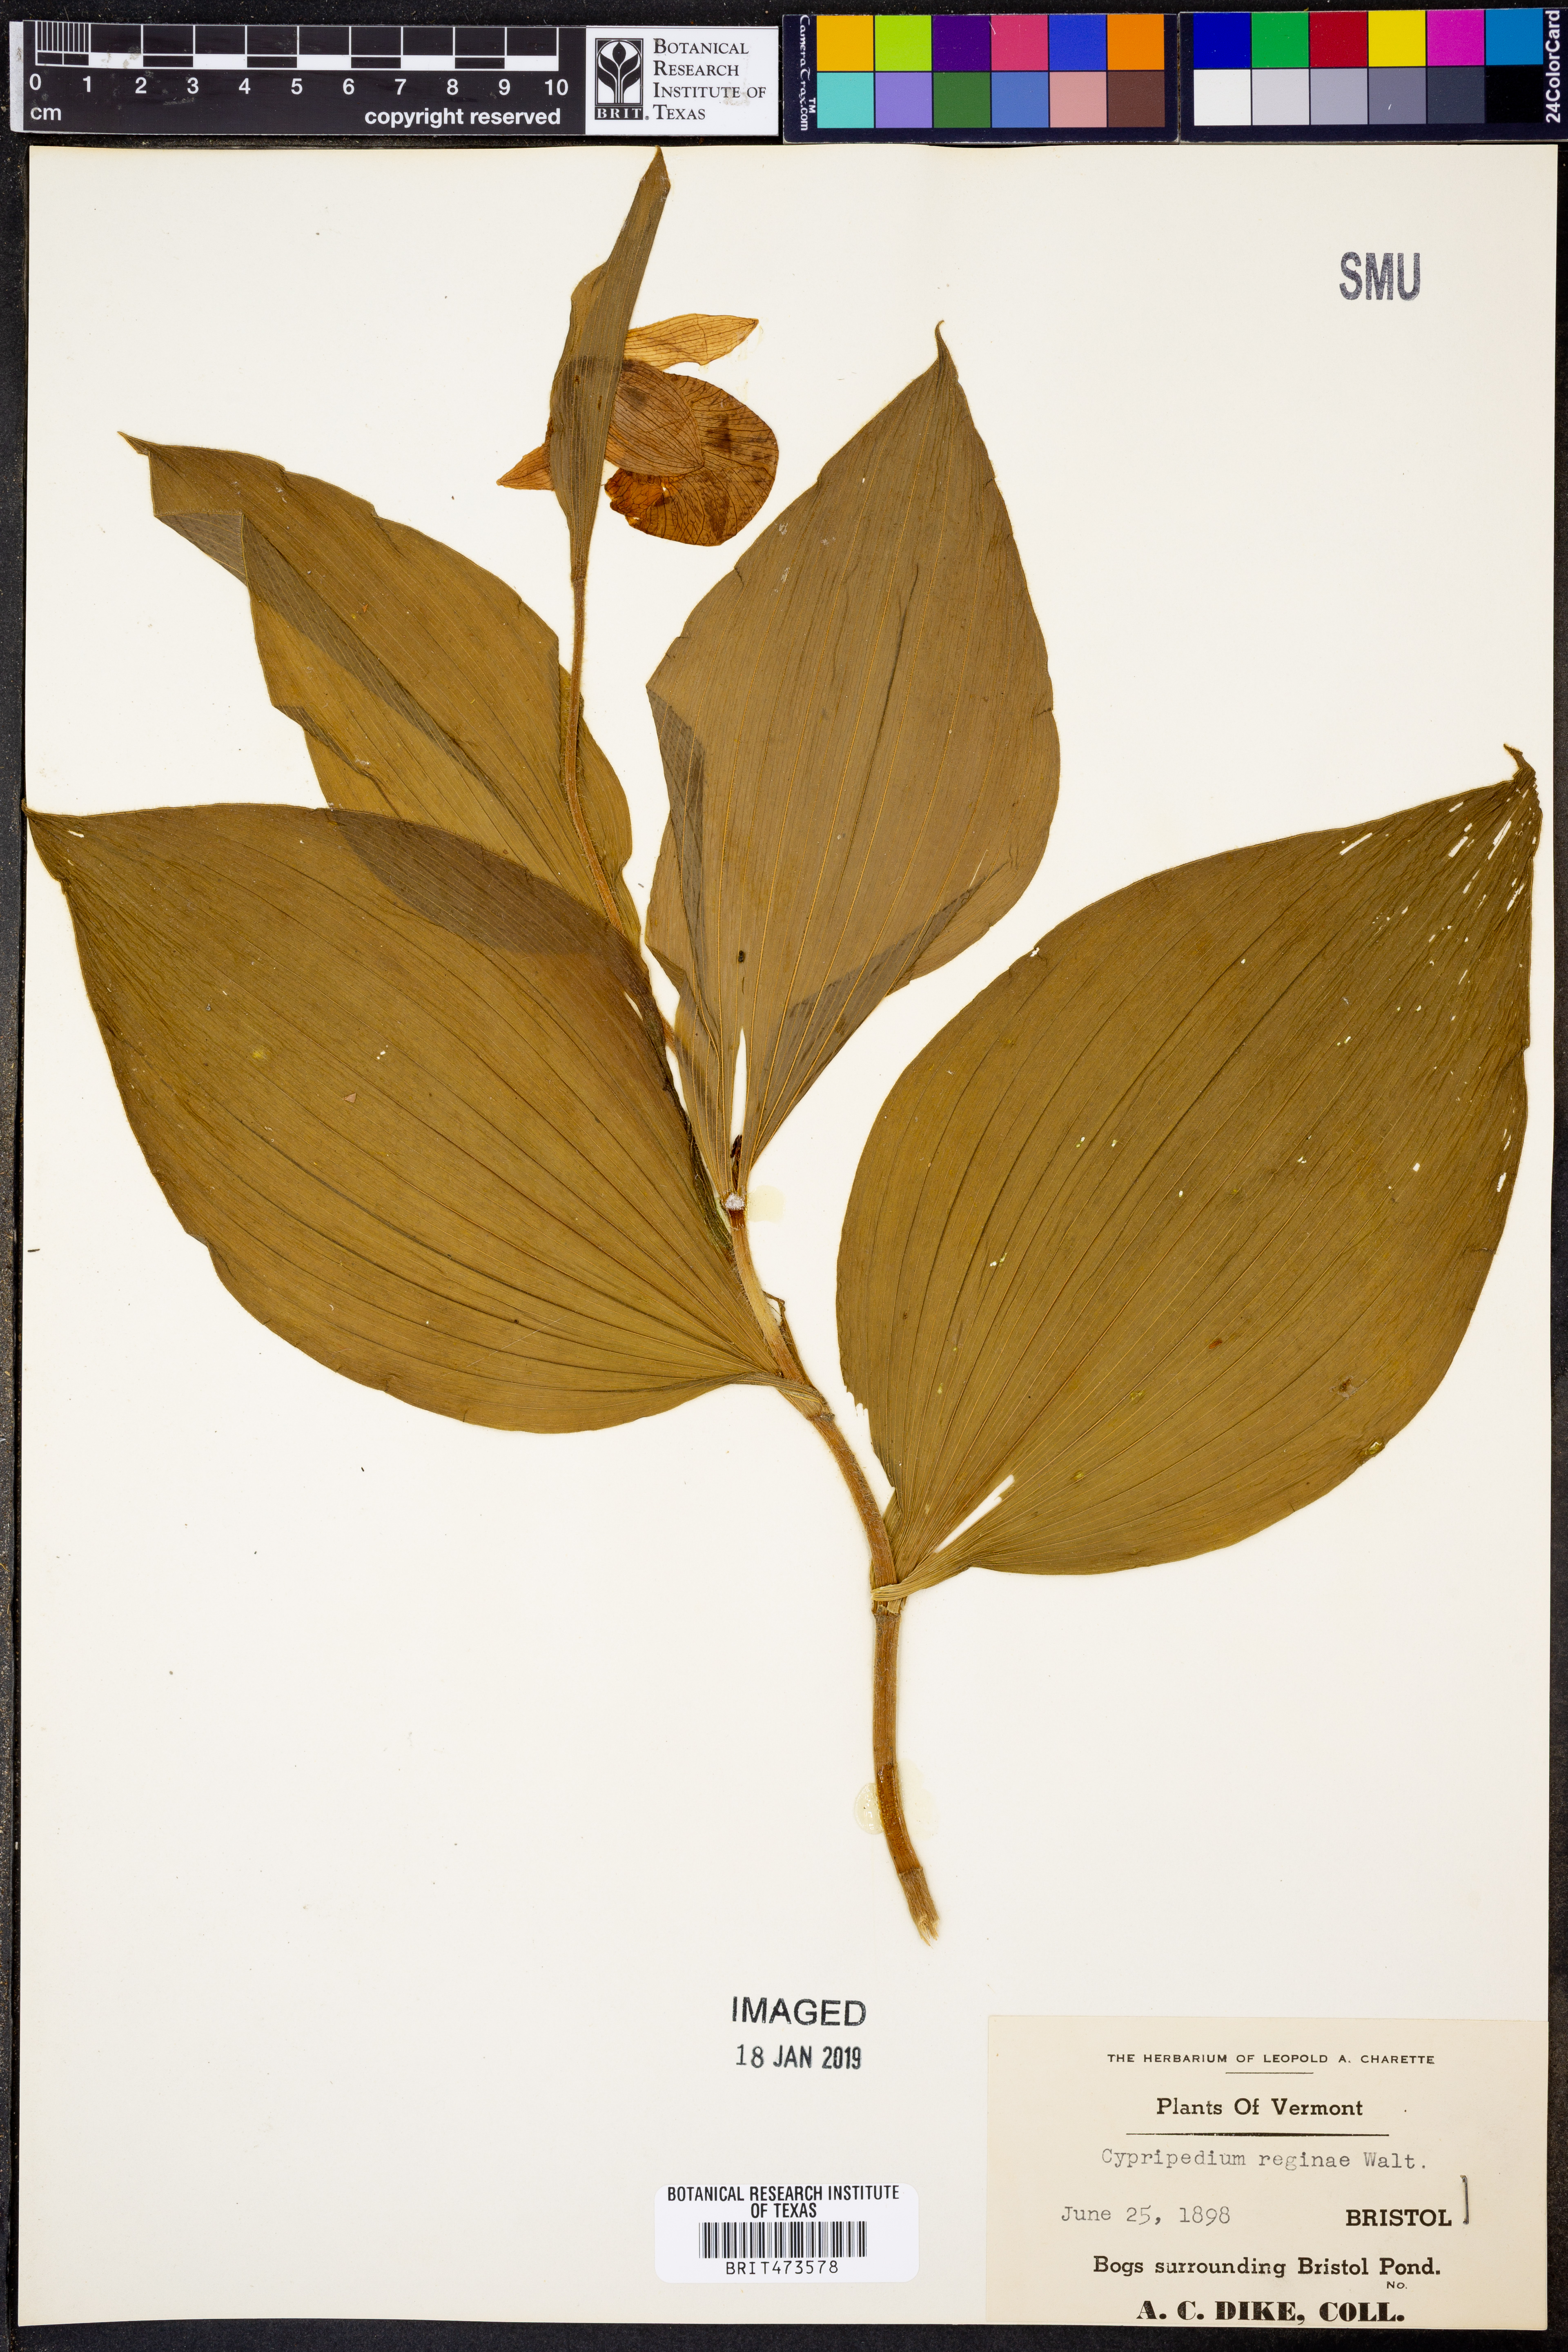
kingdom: Plantae
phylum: Tracheophyta
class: Liliopsida
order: Asparagales
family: Orchidaceae
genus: Cypripedium
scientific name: Cypripedium reginae
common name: Queen lady's-slipper
